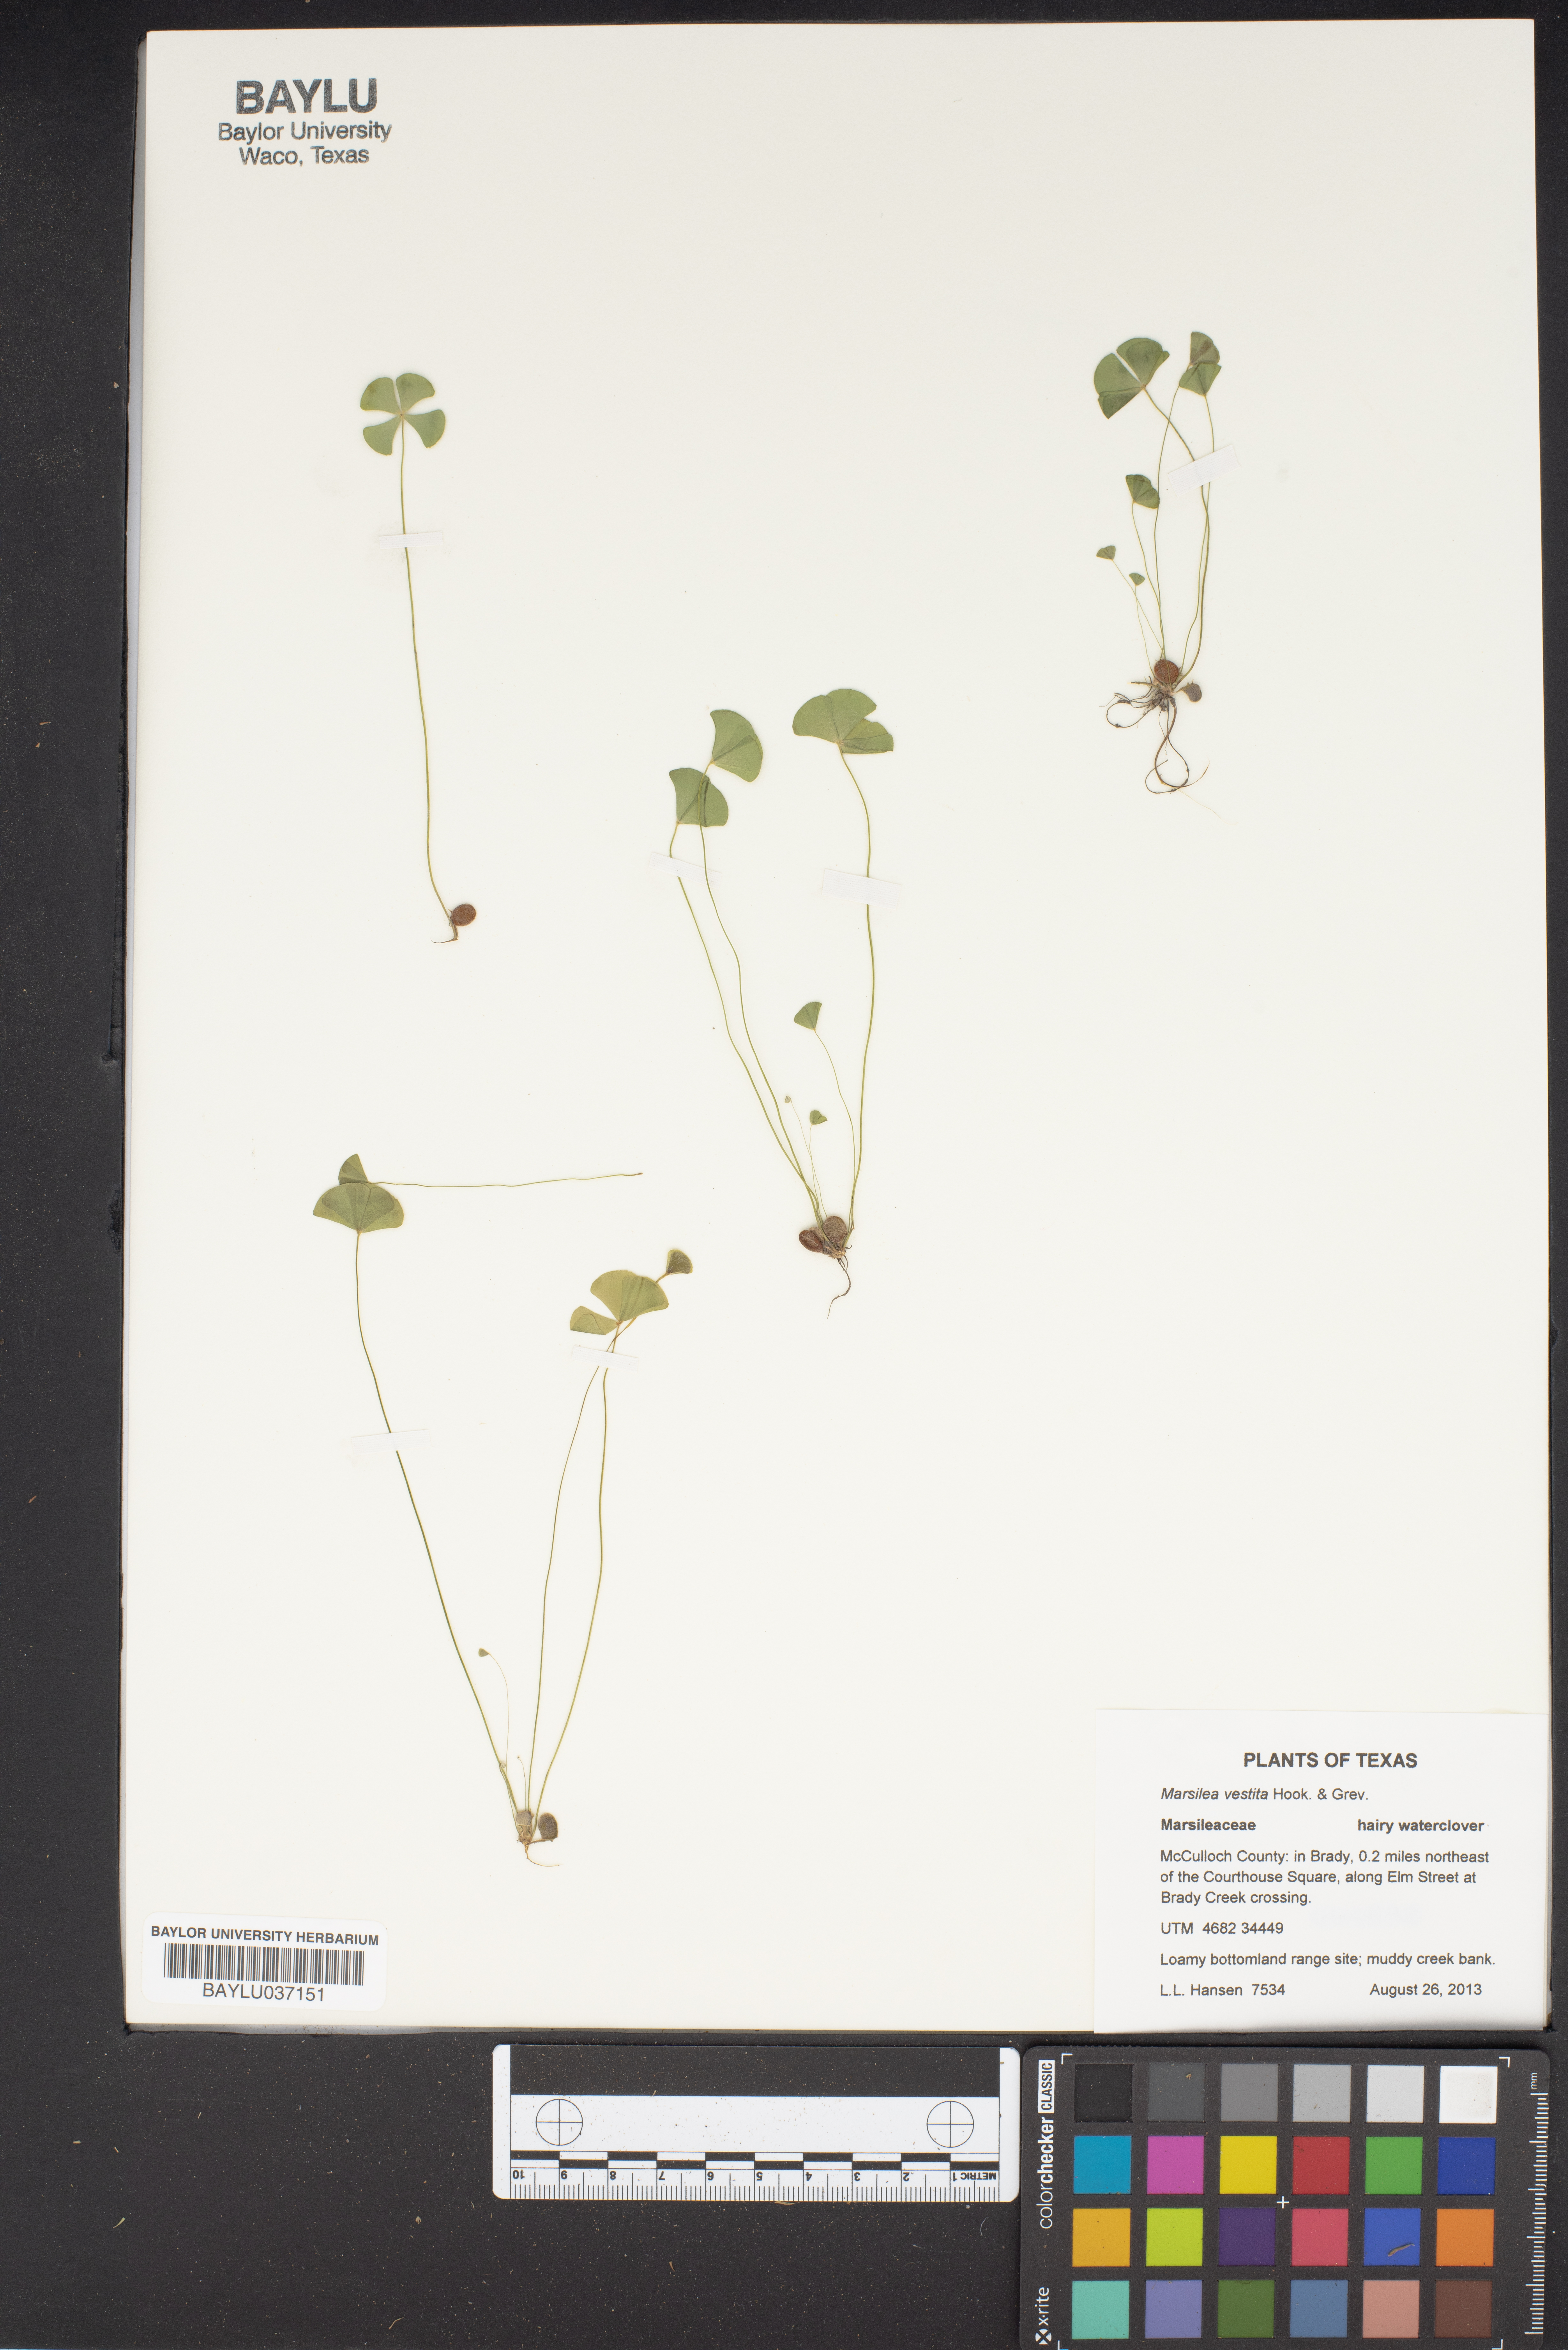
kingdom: Plantae
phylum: Tracheophyta
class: Polypodiopsida
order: Salviniales
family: Marsileaceae
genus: Marsilea
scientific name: Marsilea vestita
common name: Hooked-pepperwort
